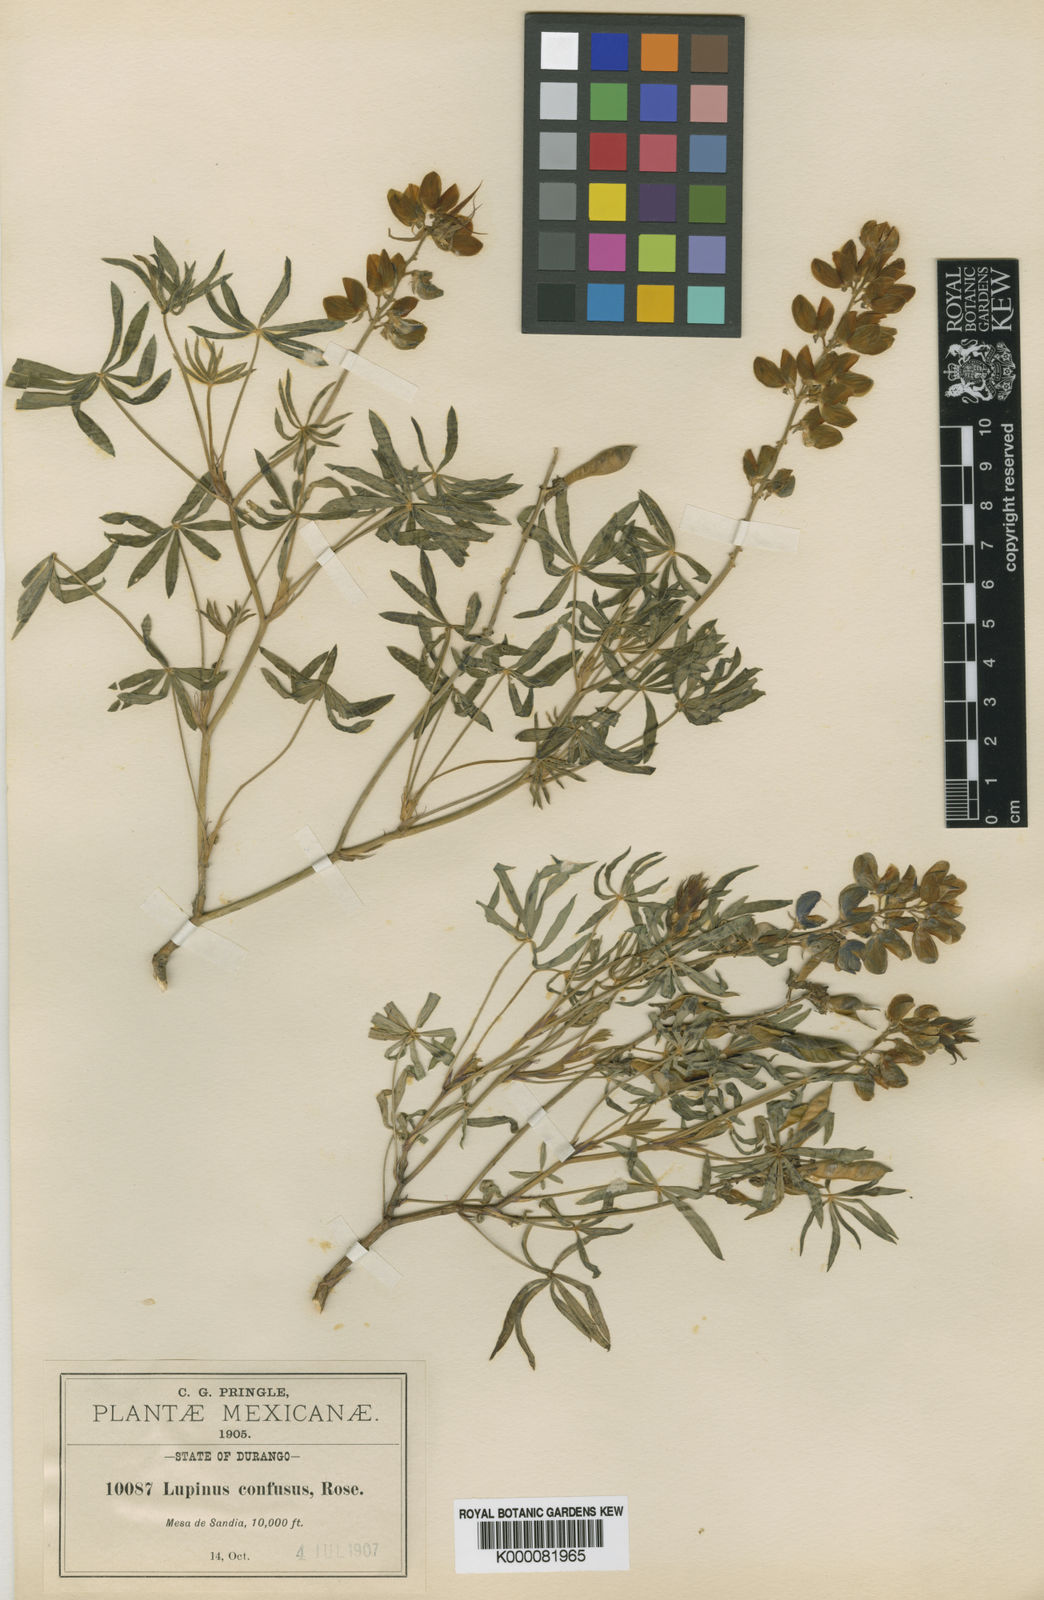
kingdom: Plantae
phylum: Tracheophyta
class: Magnoliopsida
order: Fabales
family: Fabaceae
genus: Lupinus
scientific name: Lupinus latifolius
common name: Broad-leaved lupine
